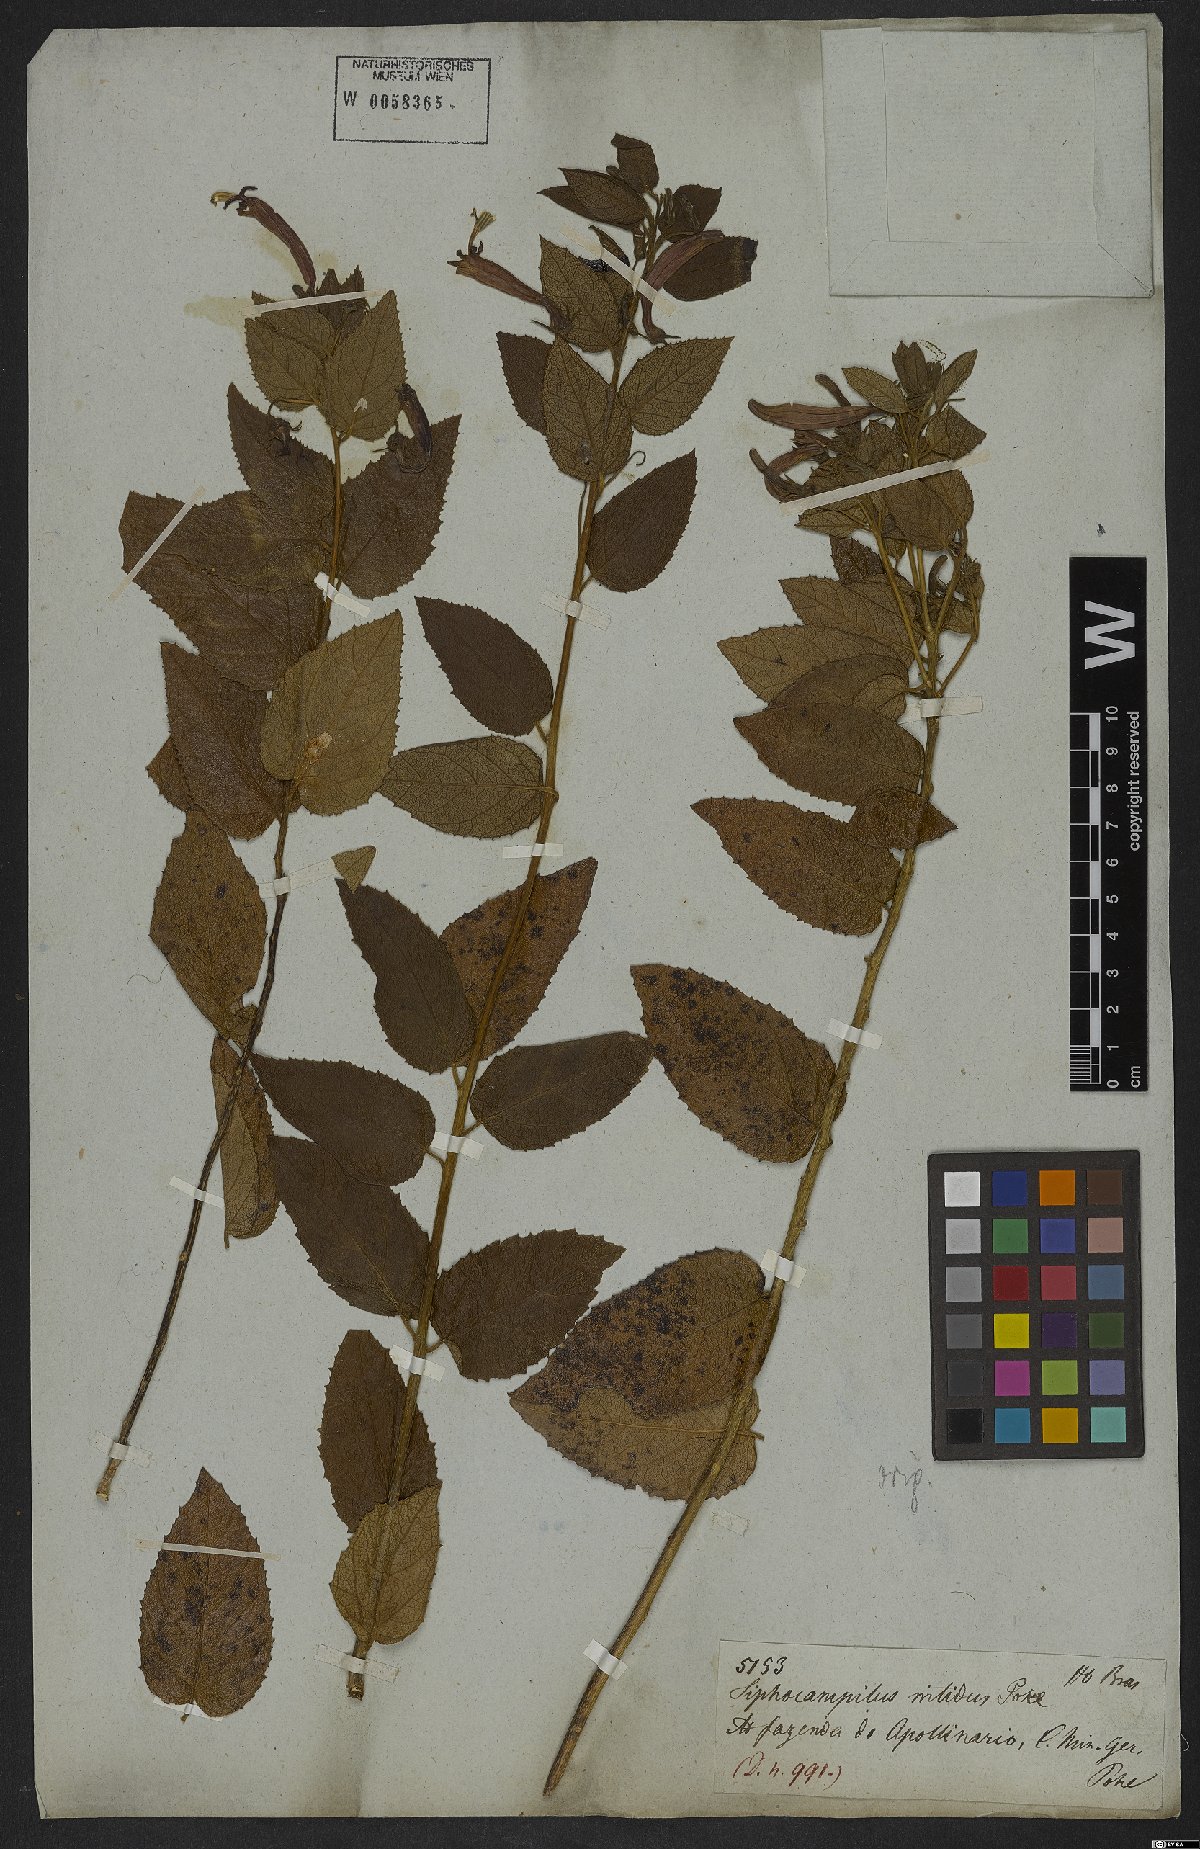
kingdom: Plantae
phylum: Tracheophyta
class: Magnoliopsida
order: Asterales
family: Campanulaceae
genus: Siphocampylus
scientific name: Siphocampylus nitidus
